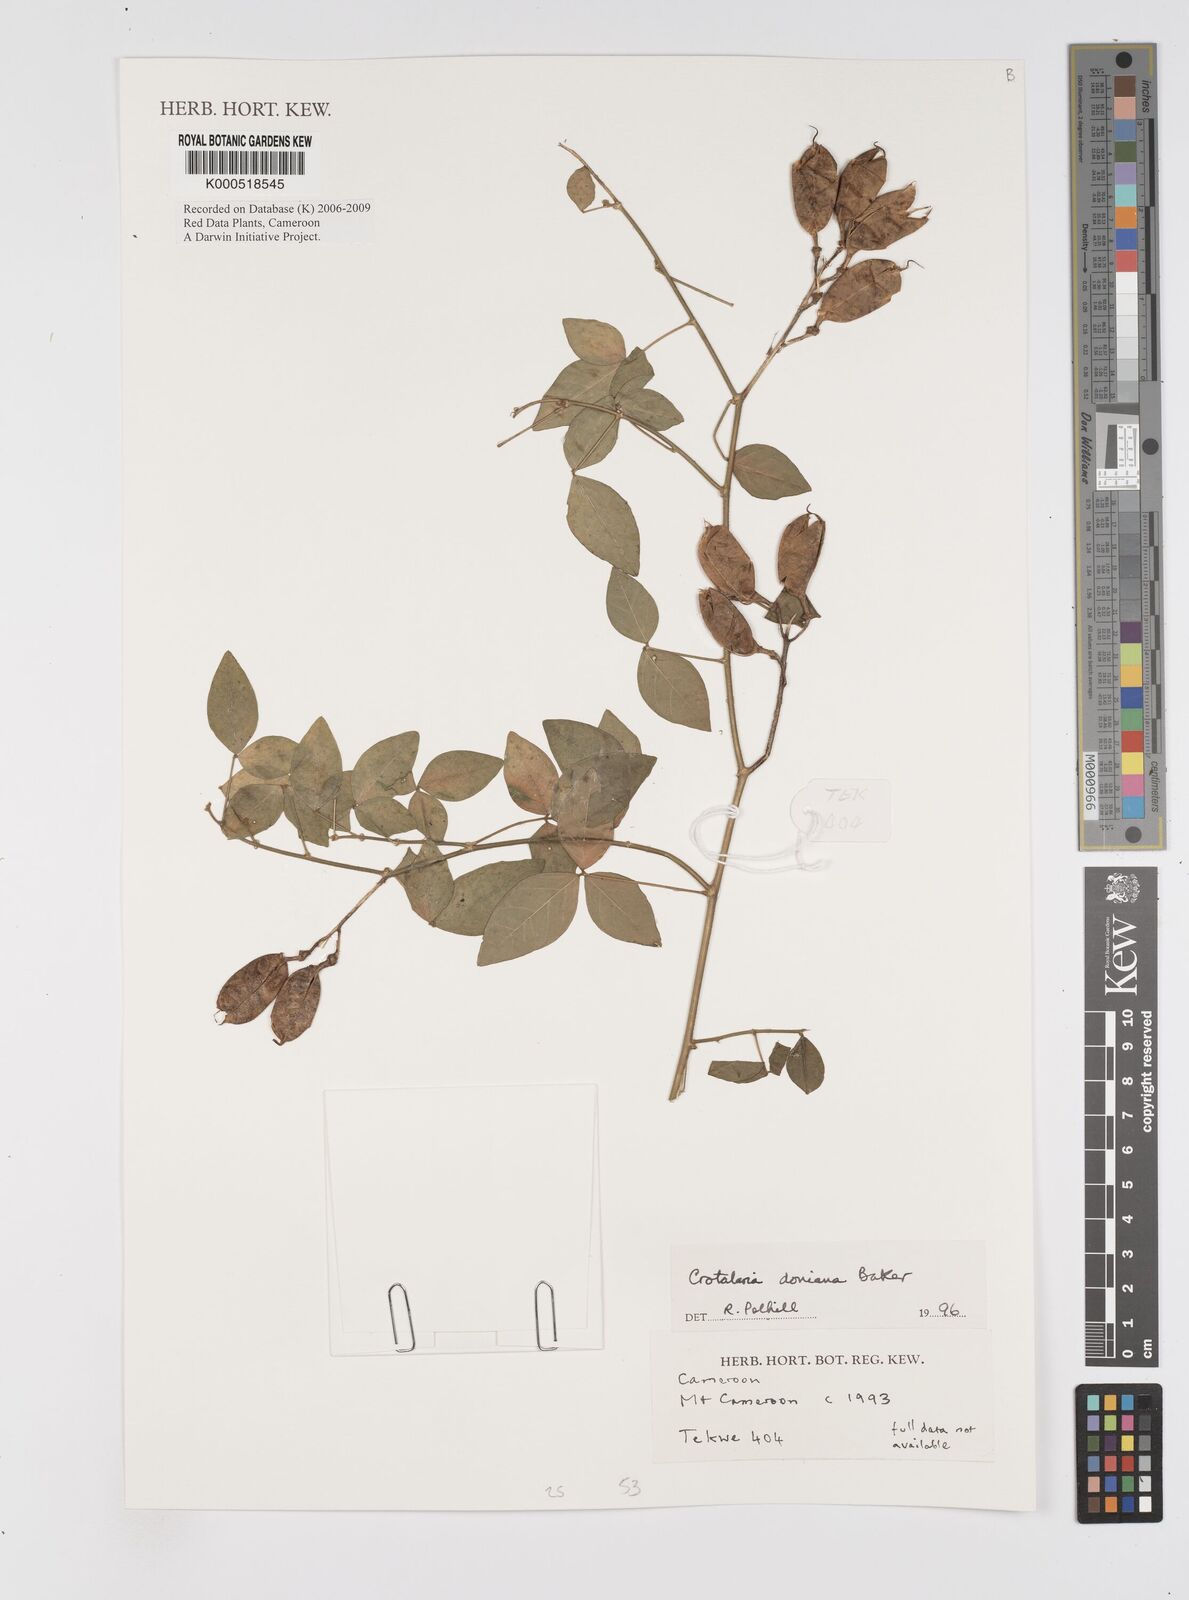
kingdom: Plantae
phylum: Tracheophyta
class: Magnoliopsida
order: Fabales
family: Fabaceae
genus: Crotalaria
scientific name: Crotalaria doniana
